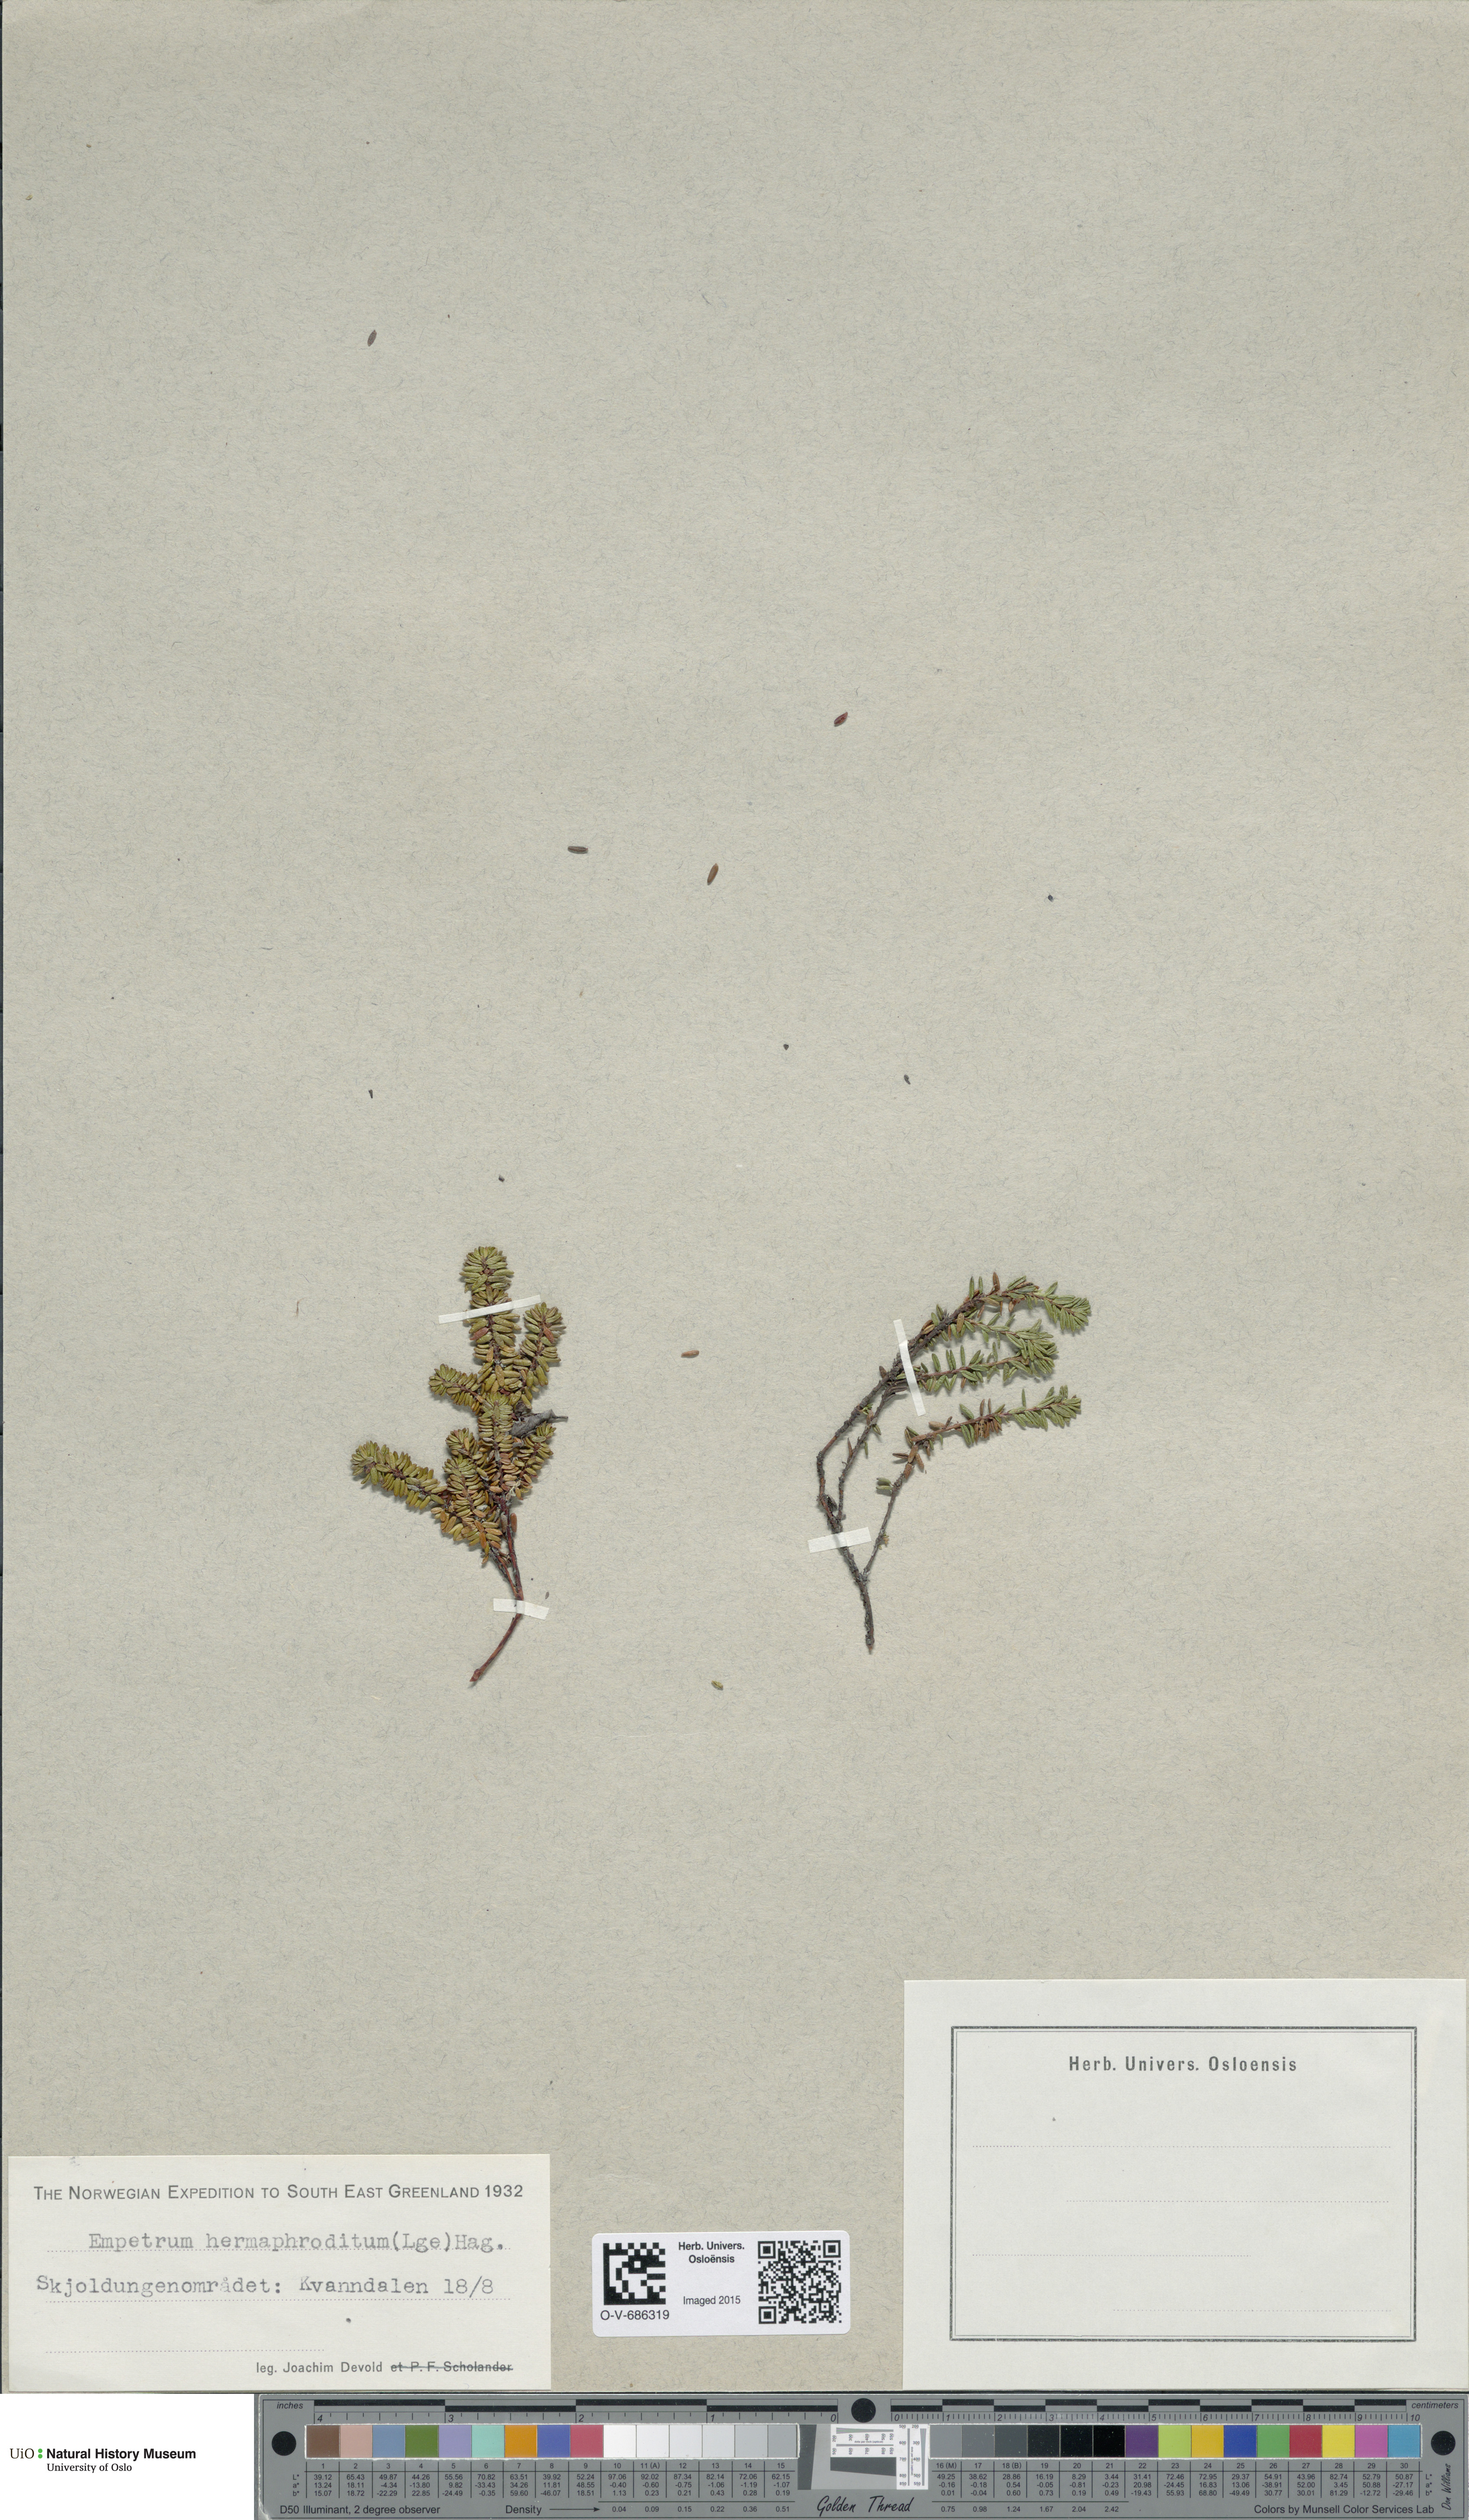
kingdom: Plantae
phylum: Tracheophyta
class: Magnoliopsida
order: Ericales
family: Ericaceae
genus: Empetrum
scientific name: Empetrum hermaphroditum
